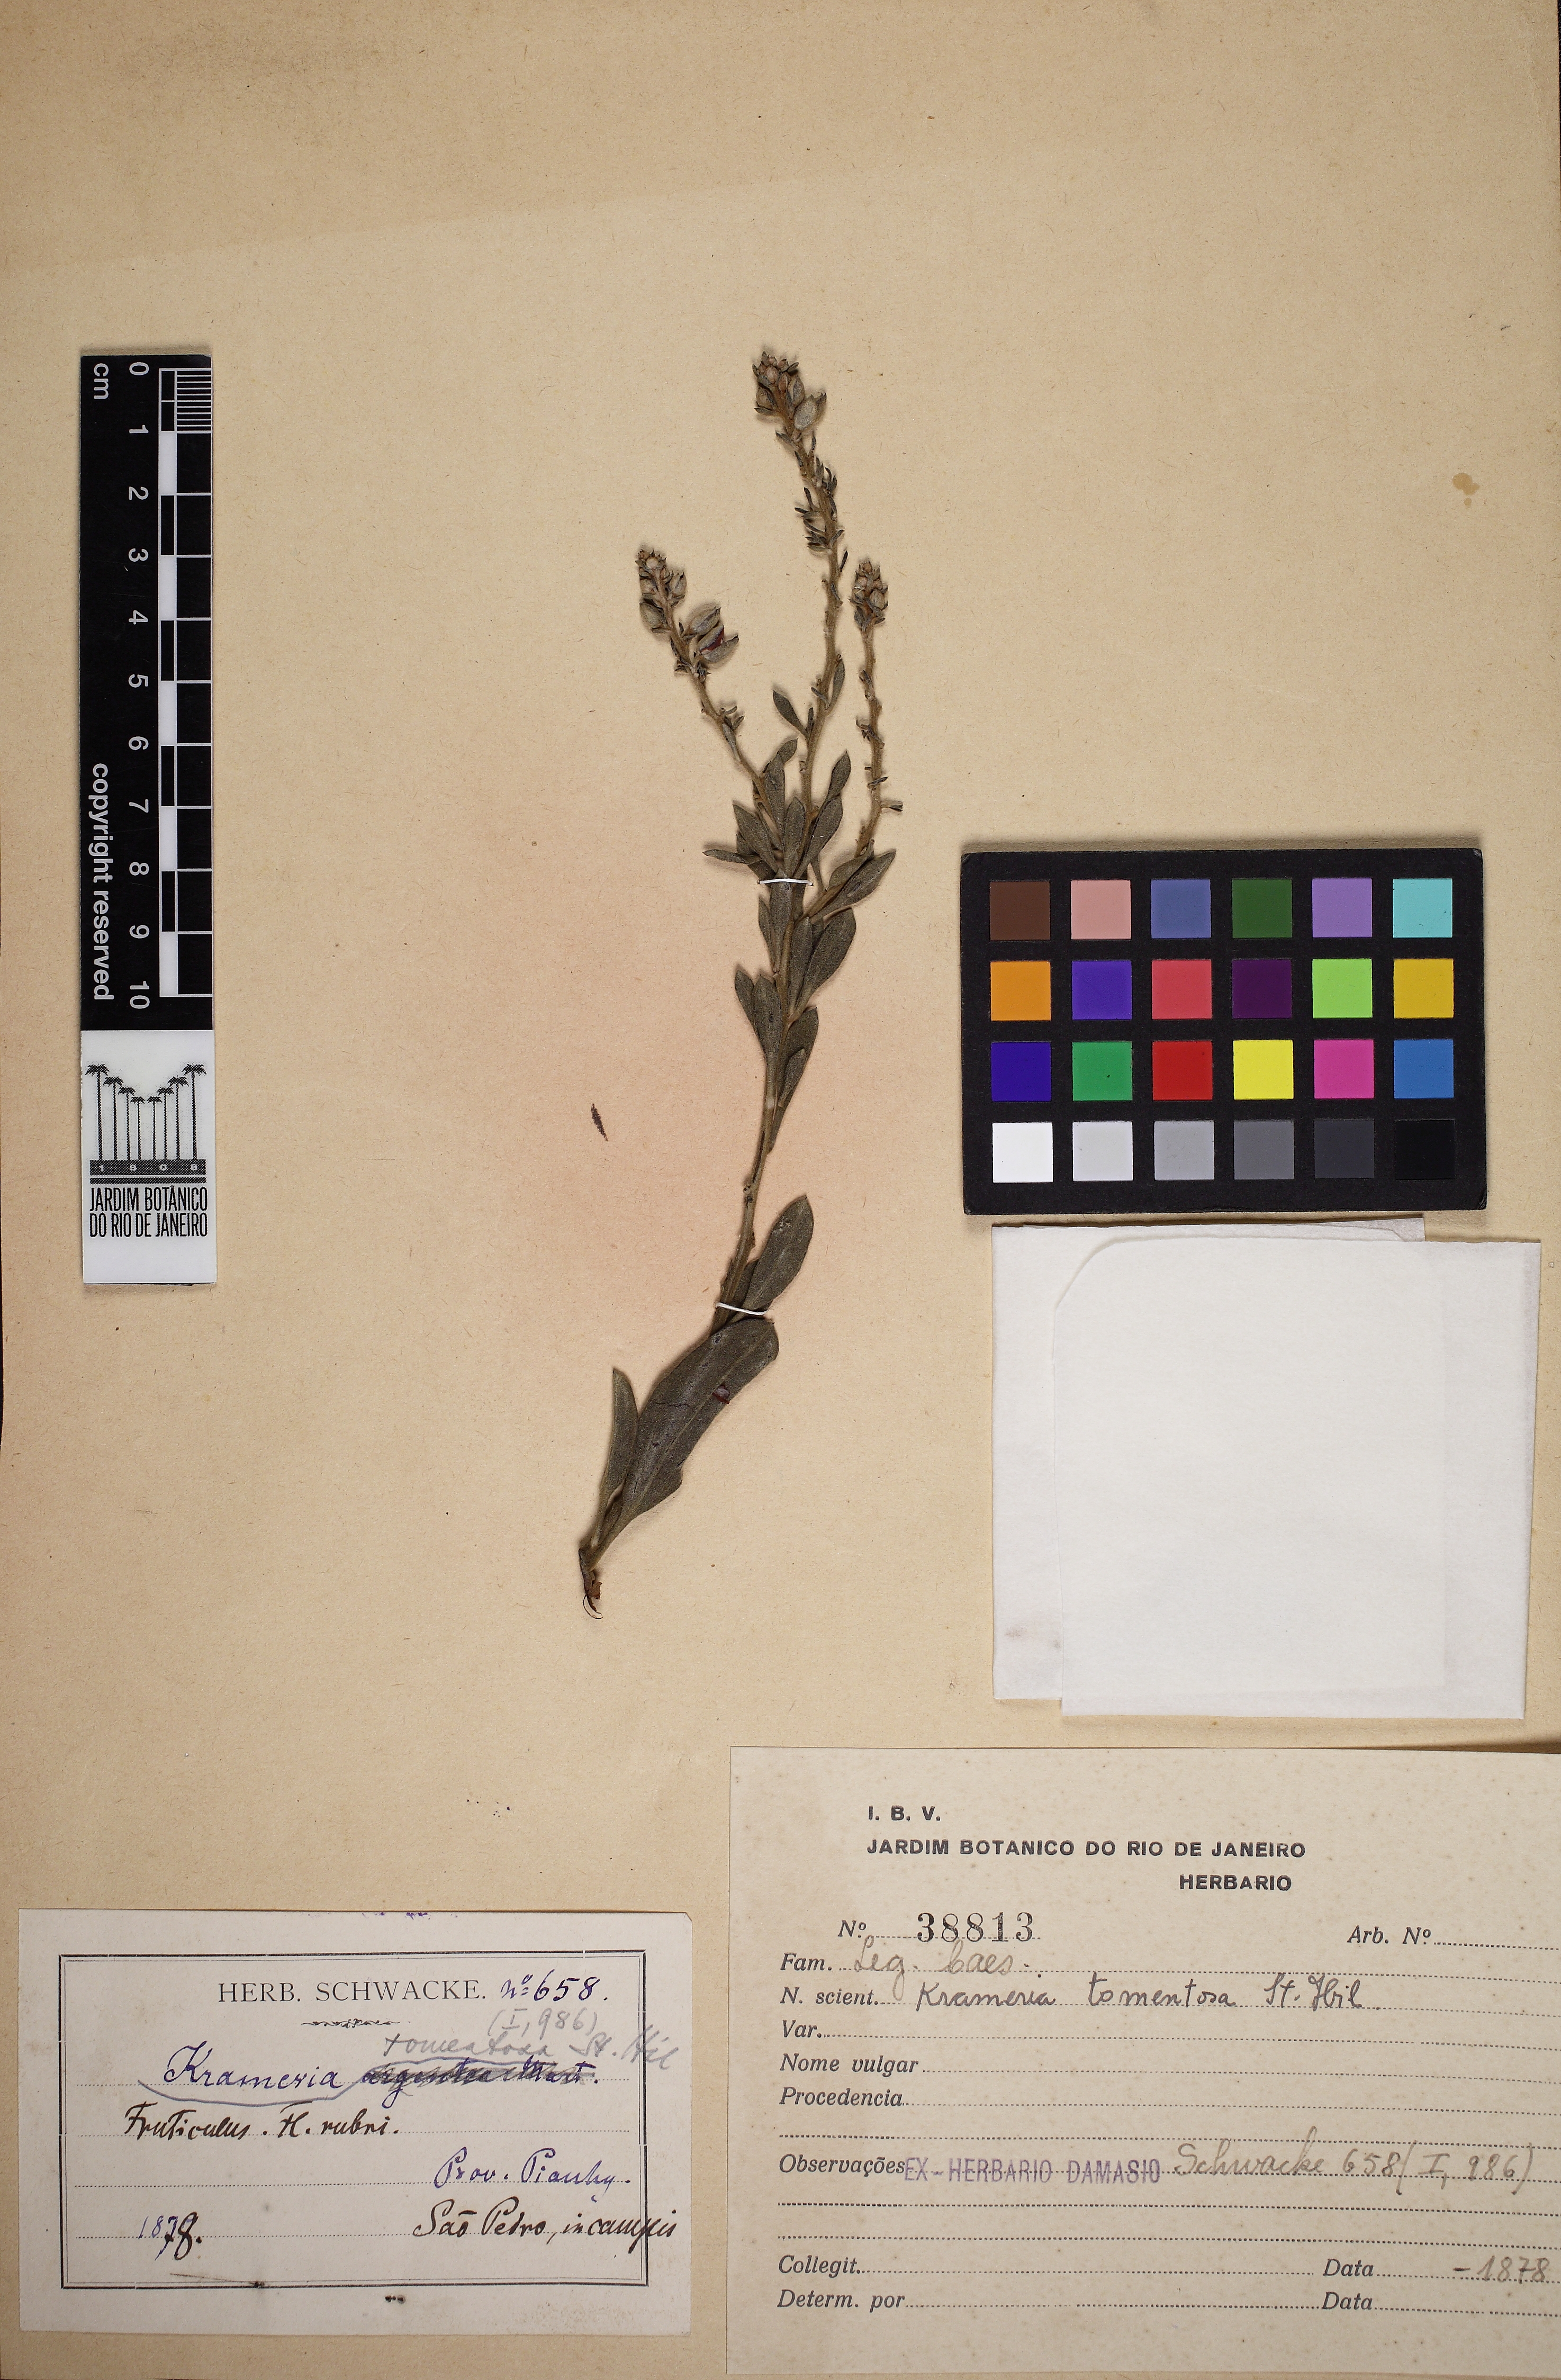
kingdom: Plantae
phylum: Tracheophyta
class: Magnoliopsida
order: Zygophyllales
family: Krameriaceae
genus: Krameria
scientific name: Krameria tomentosa
